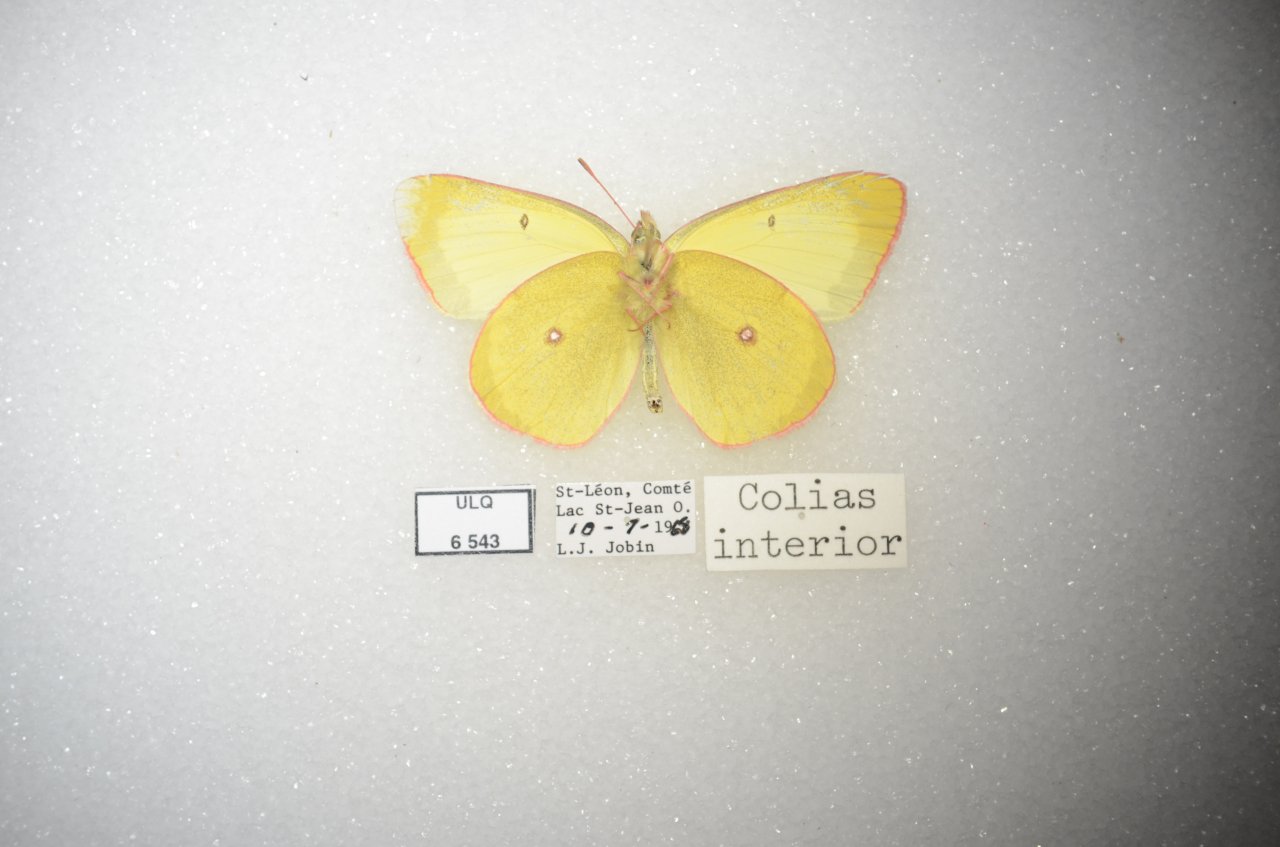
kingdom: Animalia
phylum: Arthropoda
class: Insecta
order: Lepidoptera
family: Pieridae
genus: Colias
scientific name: Colias interior
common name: Pink-edged Sulphur
